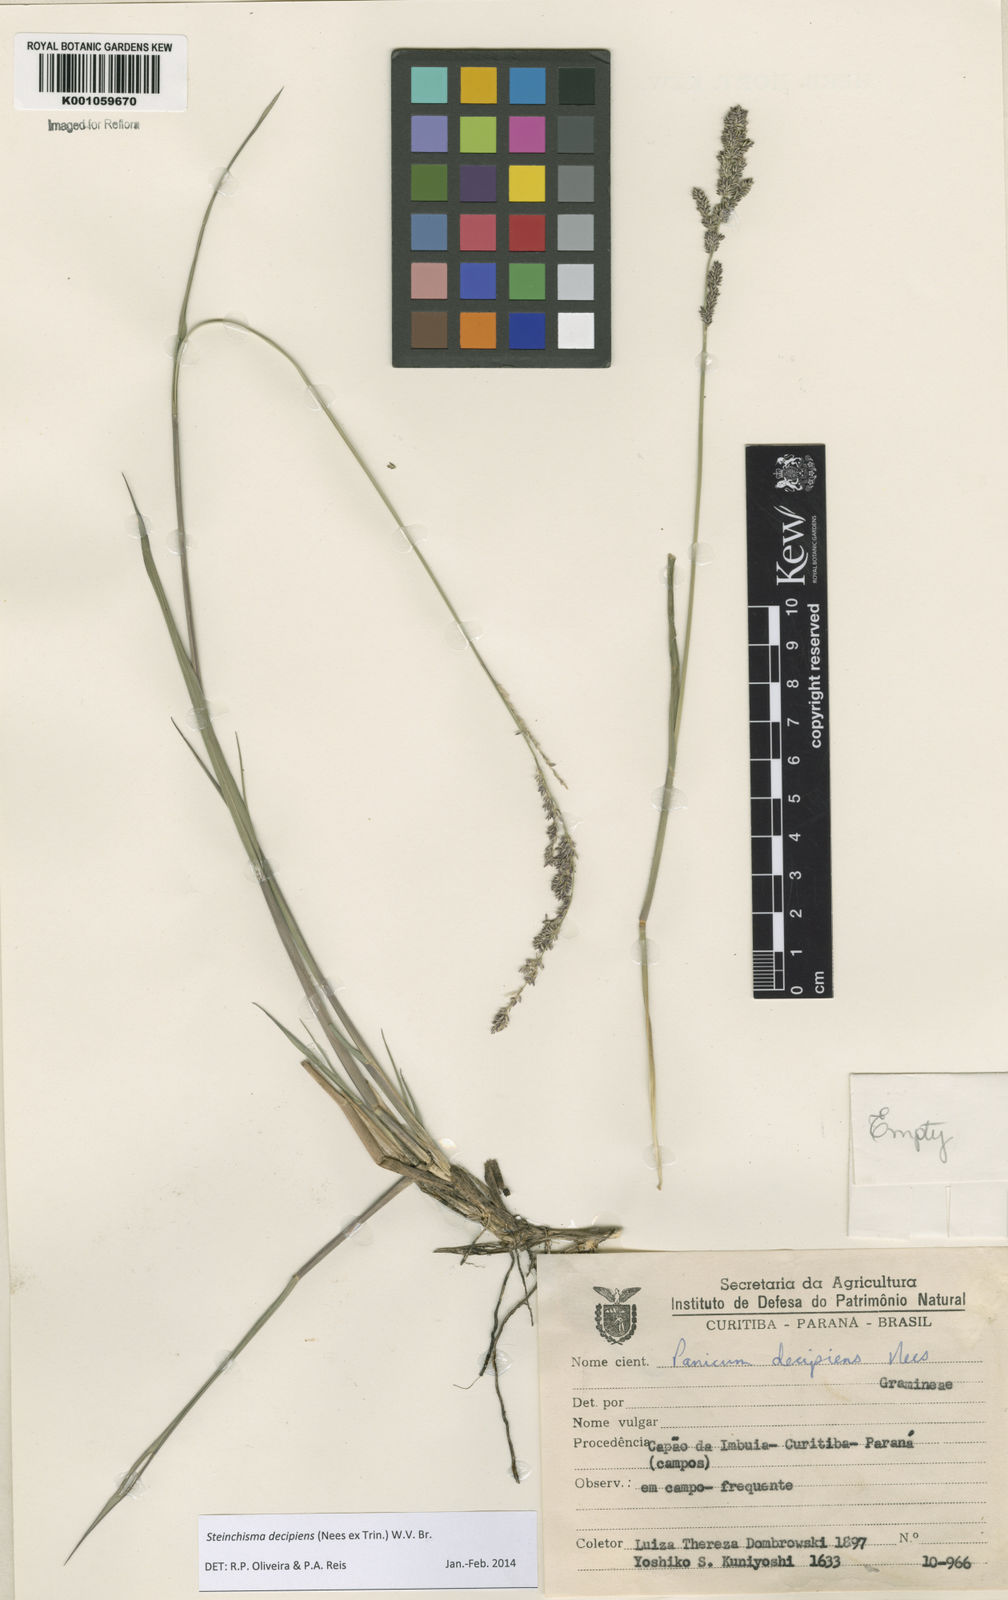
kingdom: Plantae
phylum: Tracheophyta
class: Liliopsida
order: Poales
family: Poaceae
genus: Steinchisma
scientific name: Steinchisma decipiens
